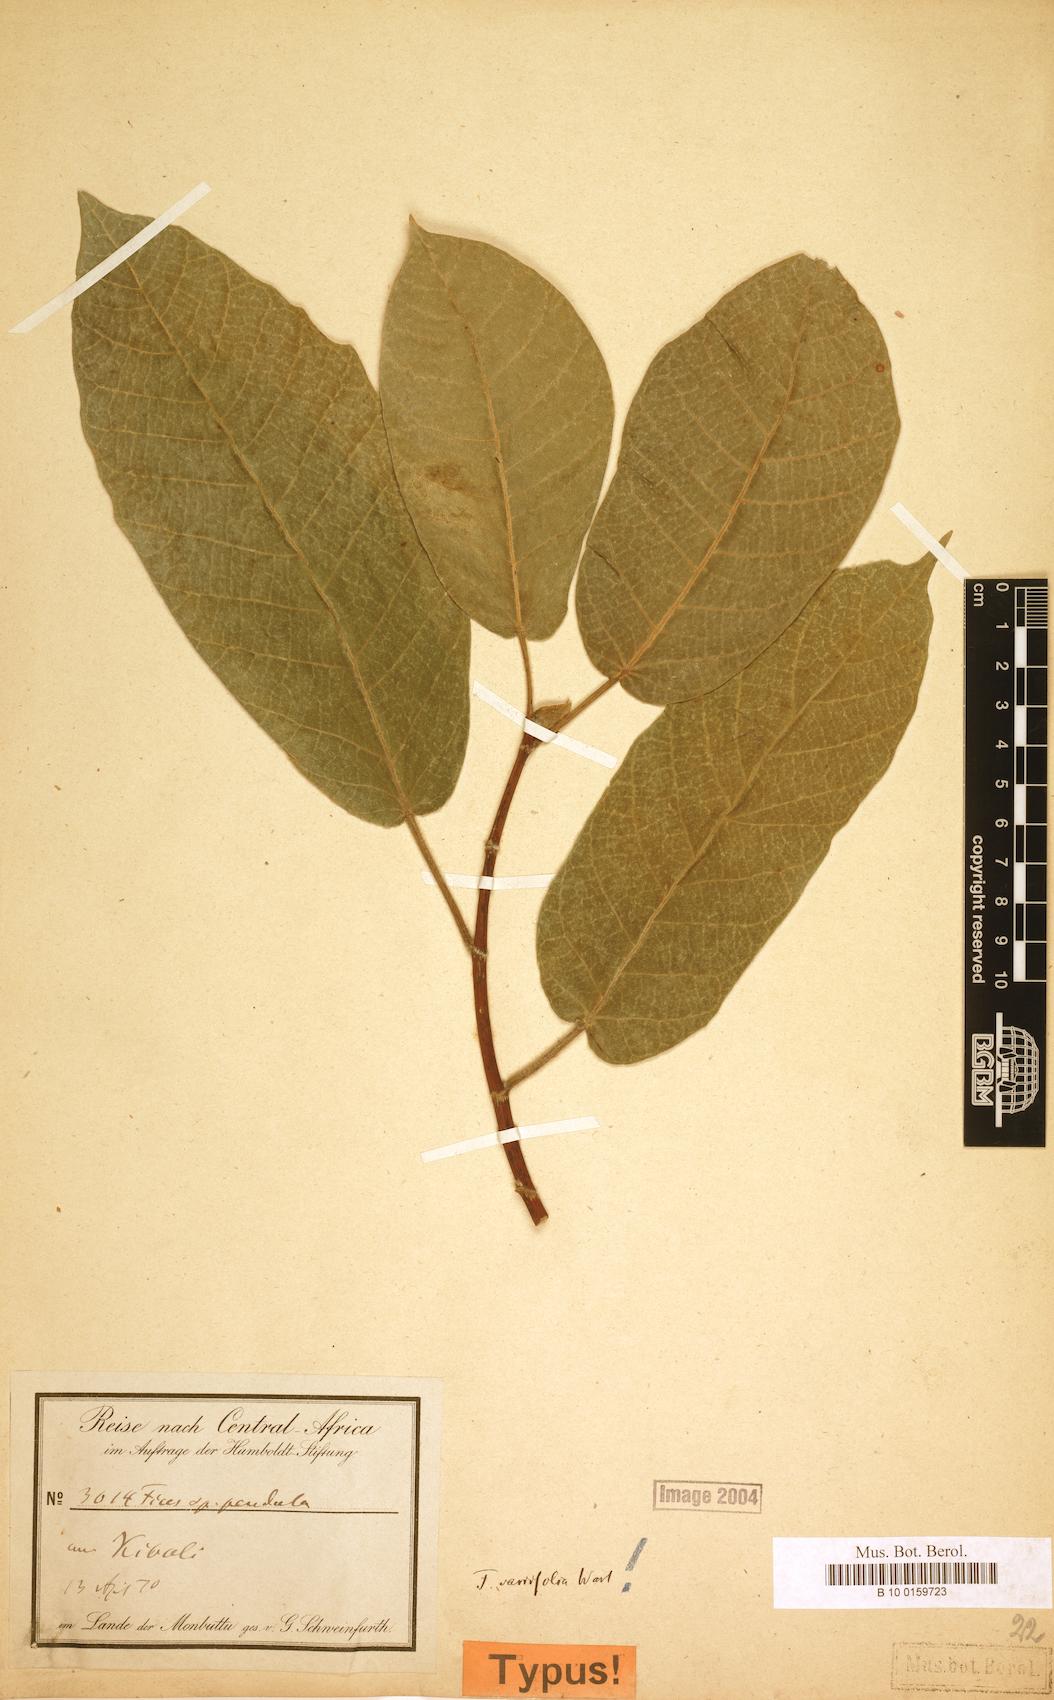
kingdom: Plantae
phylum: Tracheophyta
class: Magnoliopsida
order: Rosales
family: Moraceae
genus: Ficus
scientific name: Ficus variifolia
